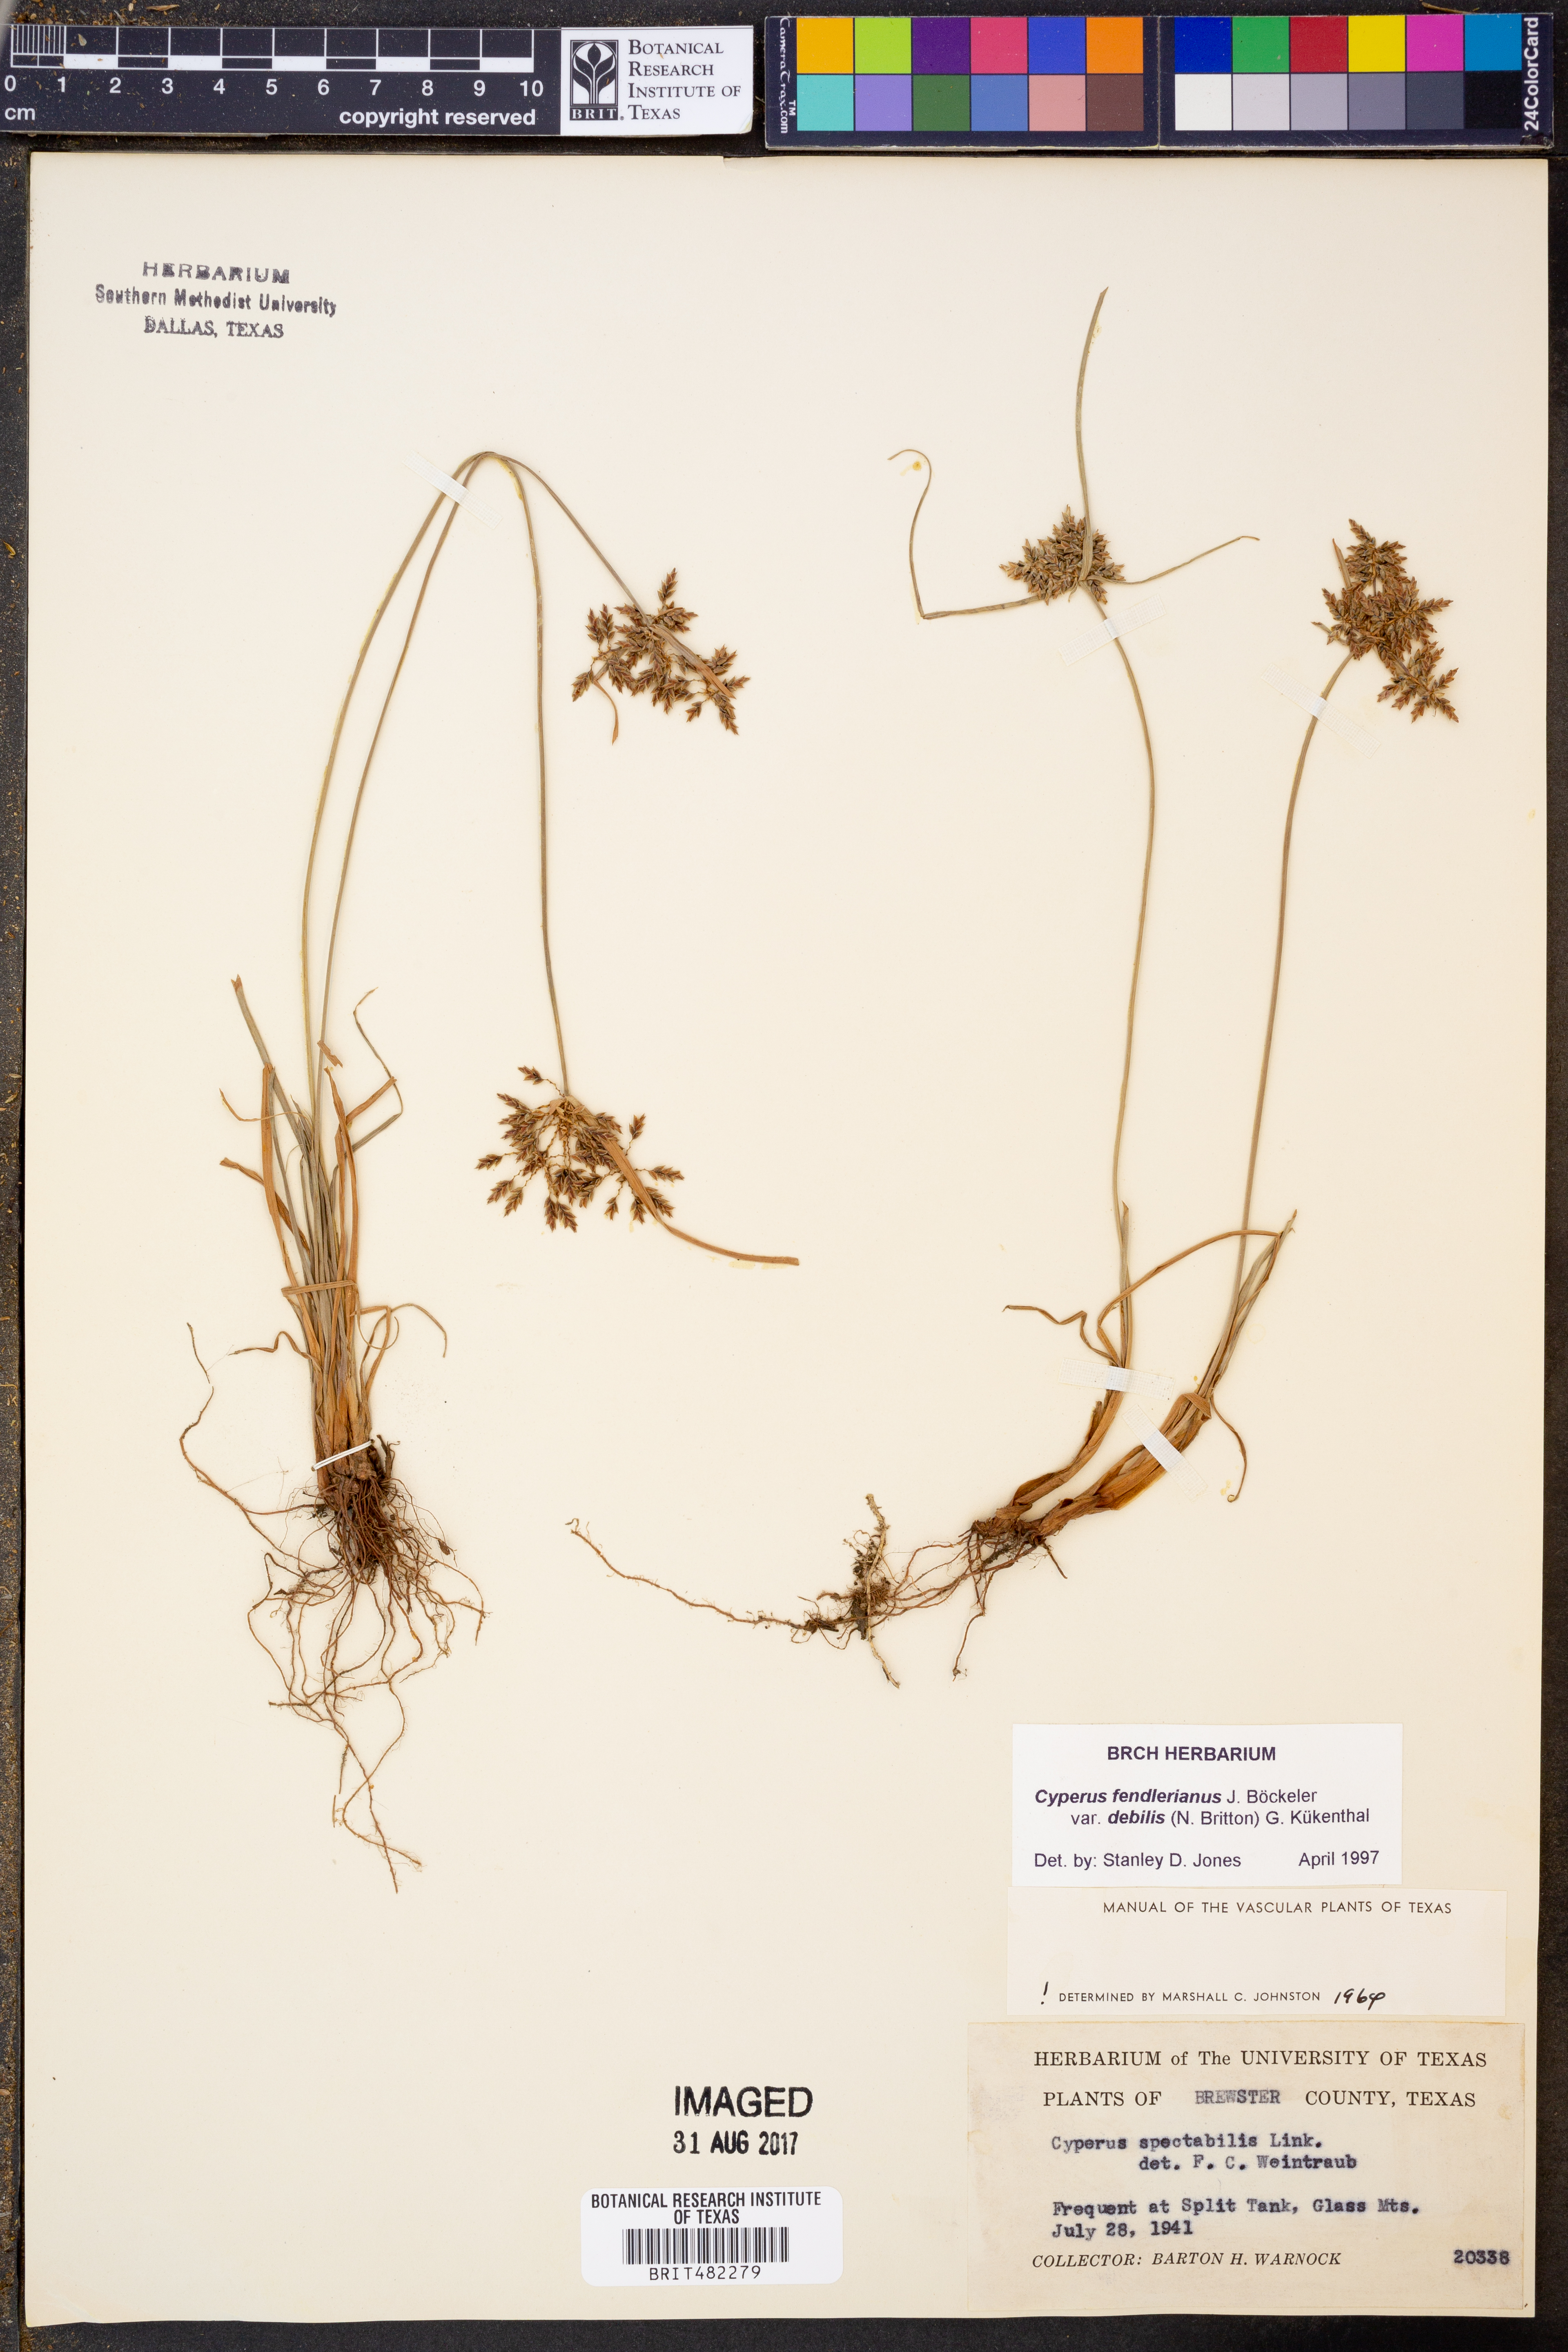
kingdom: Plantae
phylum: Tracheophyta
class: Liliopsida
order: Poales
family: Cyperaceae
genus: Cyperus
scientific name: Cyperus sphaerolepis
